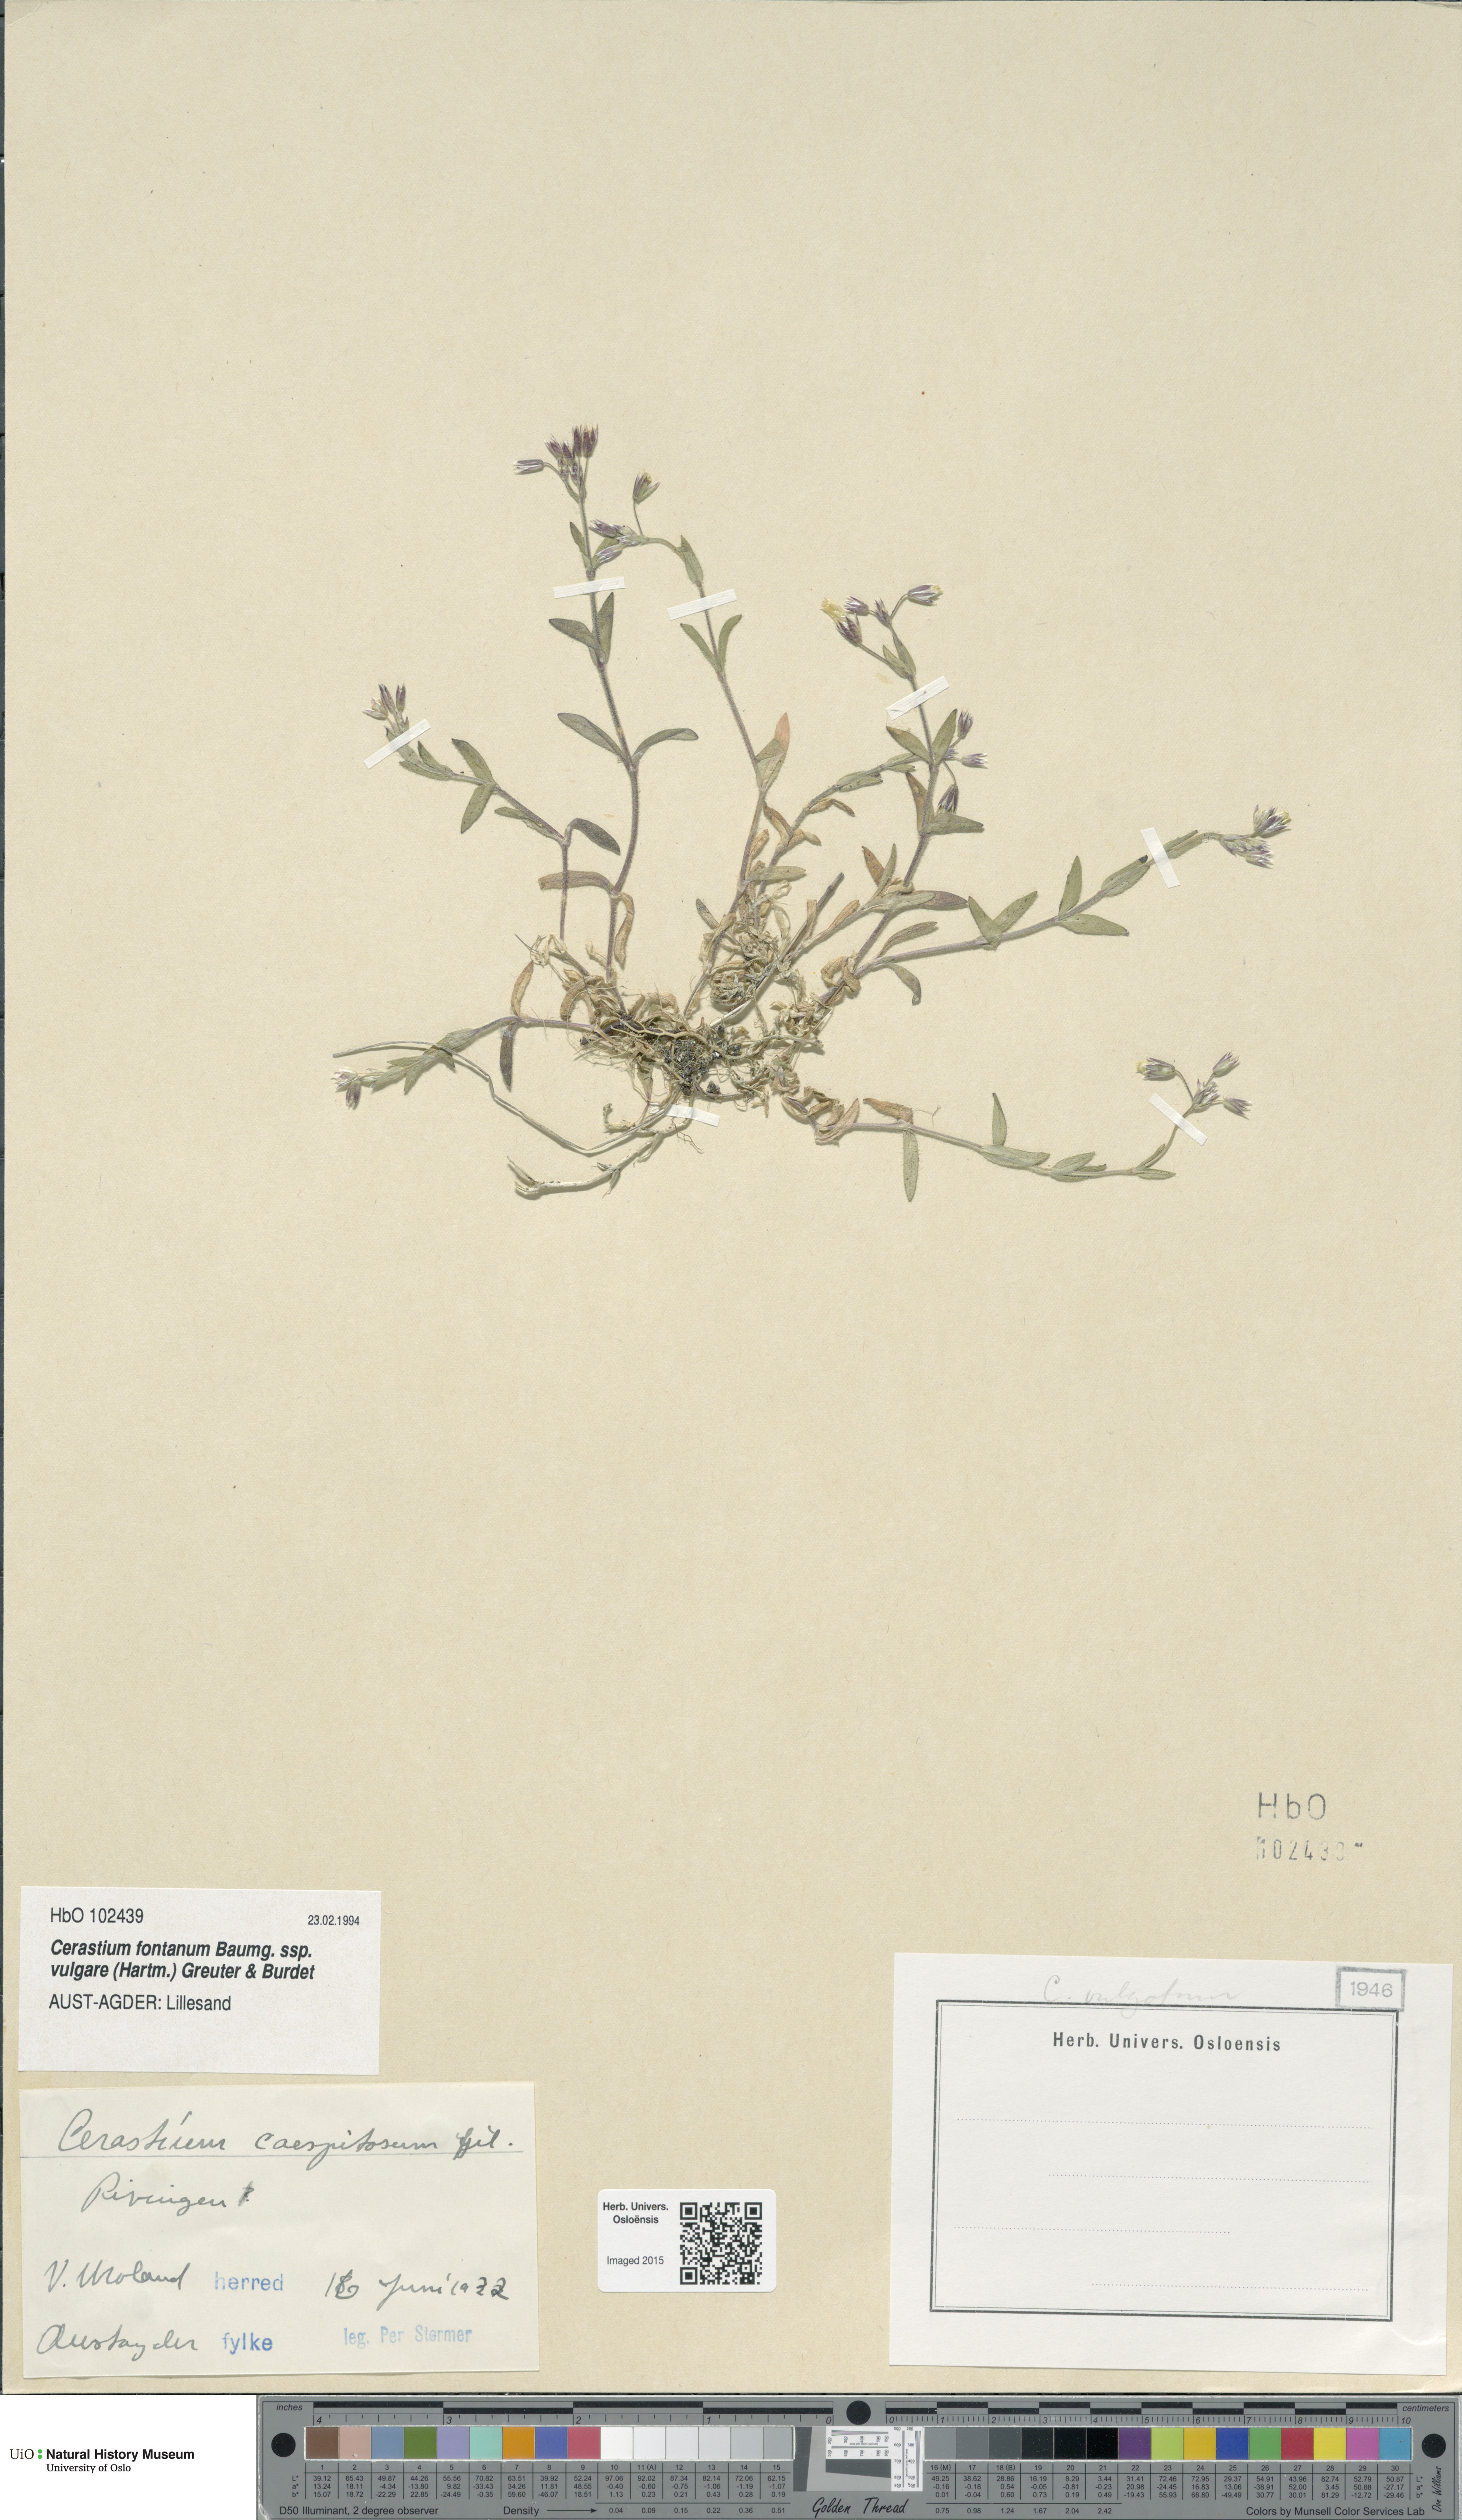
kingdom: Plantae
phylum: Tracheophyta
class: Magnoliopsida
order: Caryophyllales
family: Caryophyllaceae
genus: Cerastium
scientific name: Cerastium holosteoides
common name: Big chickweed
